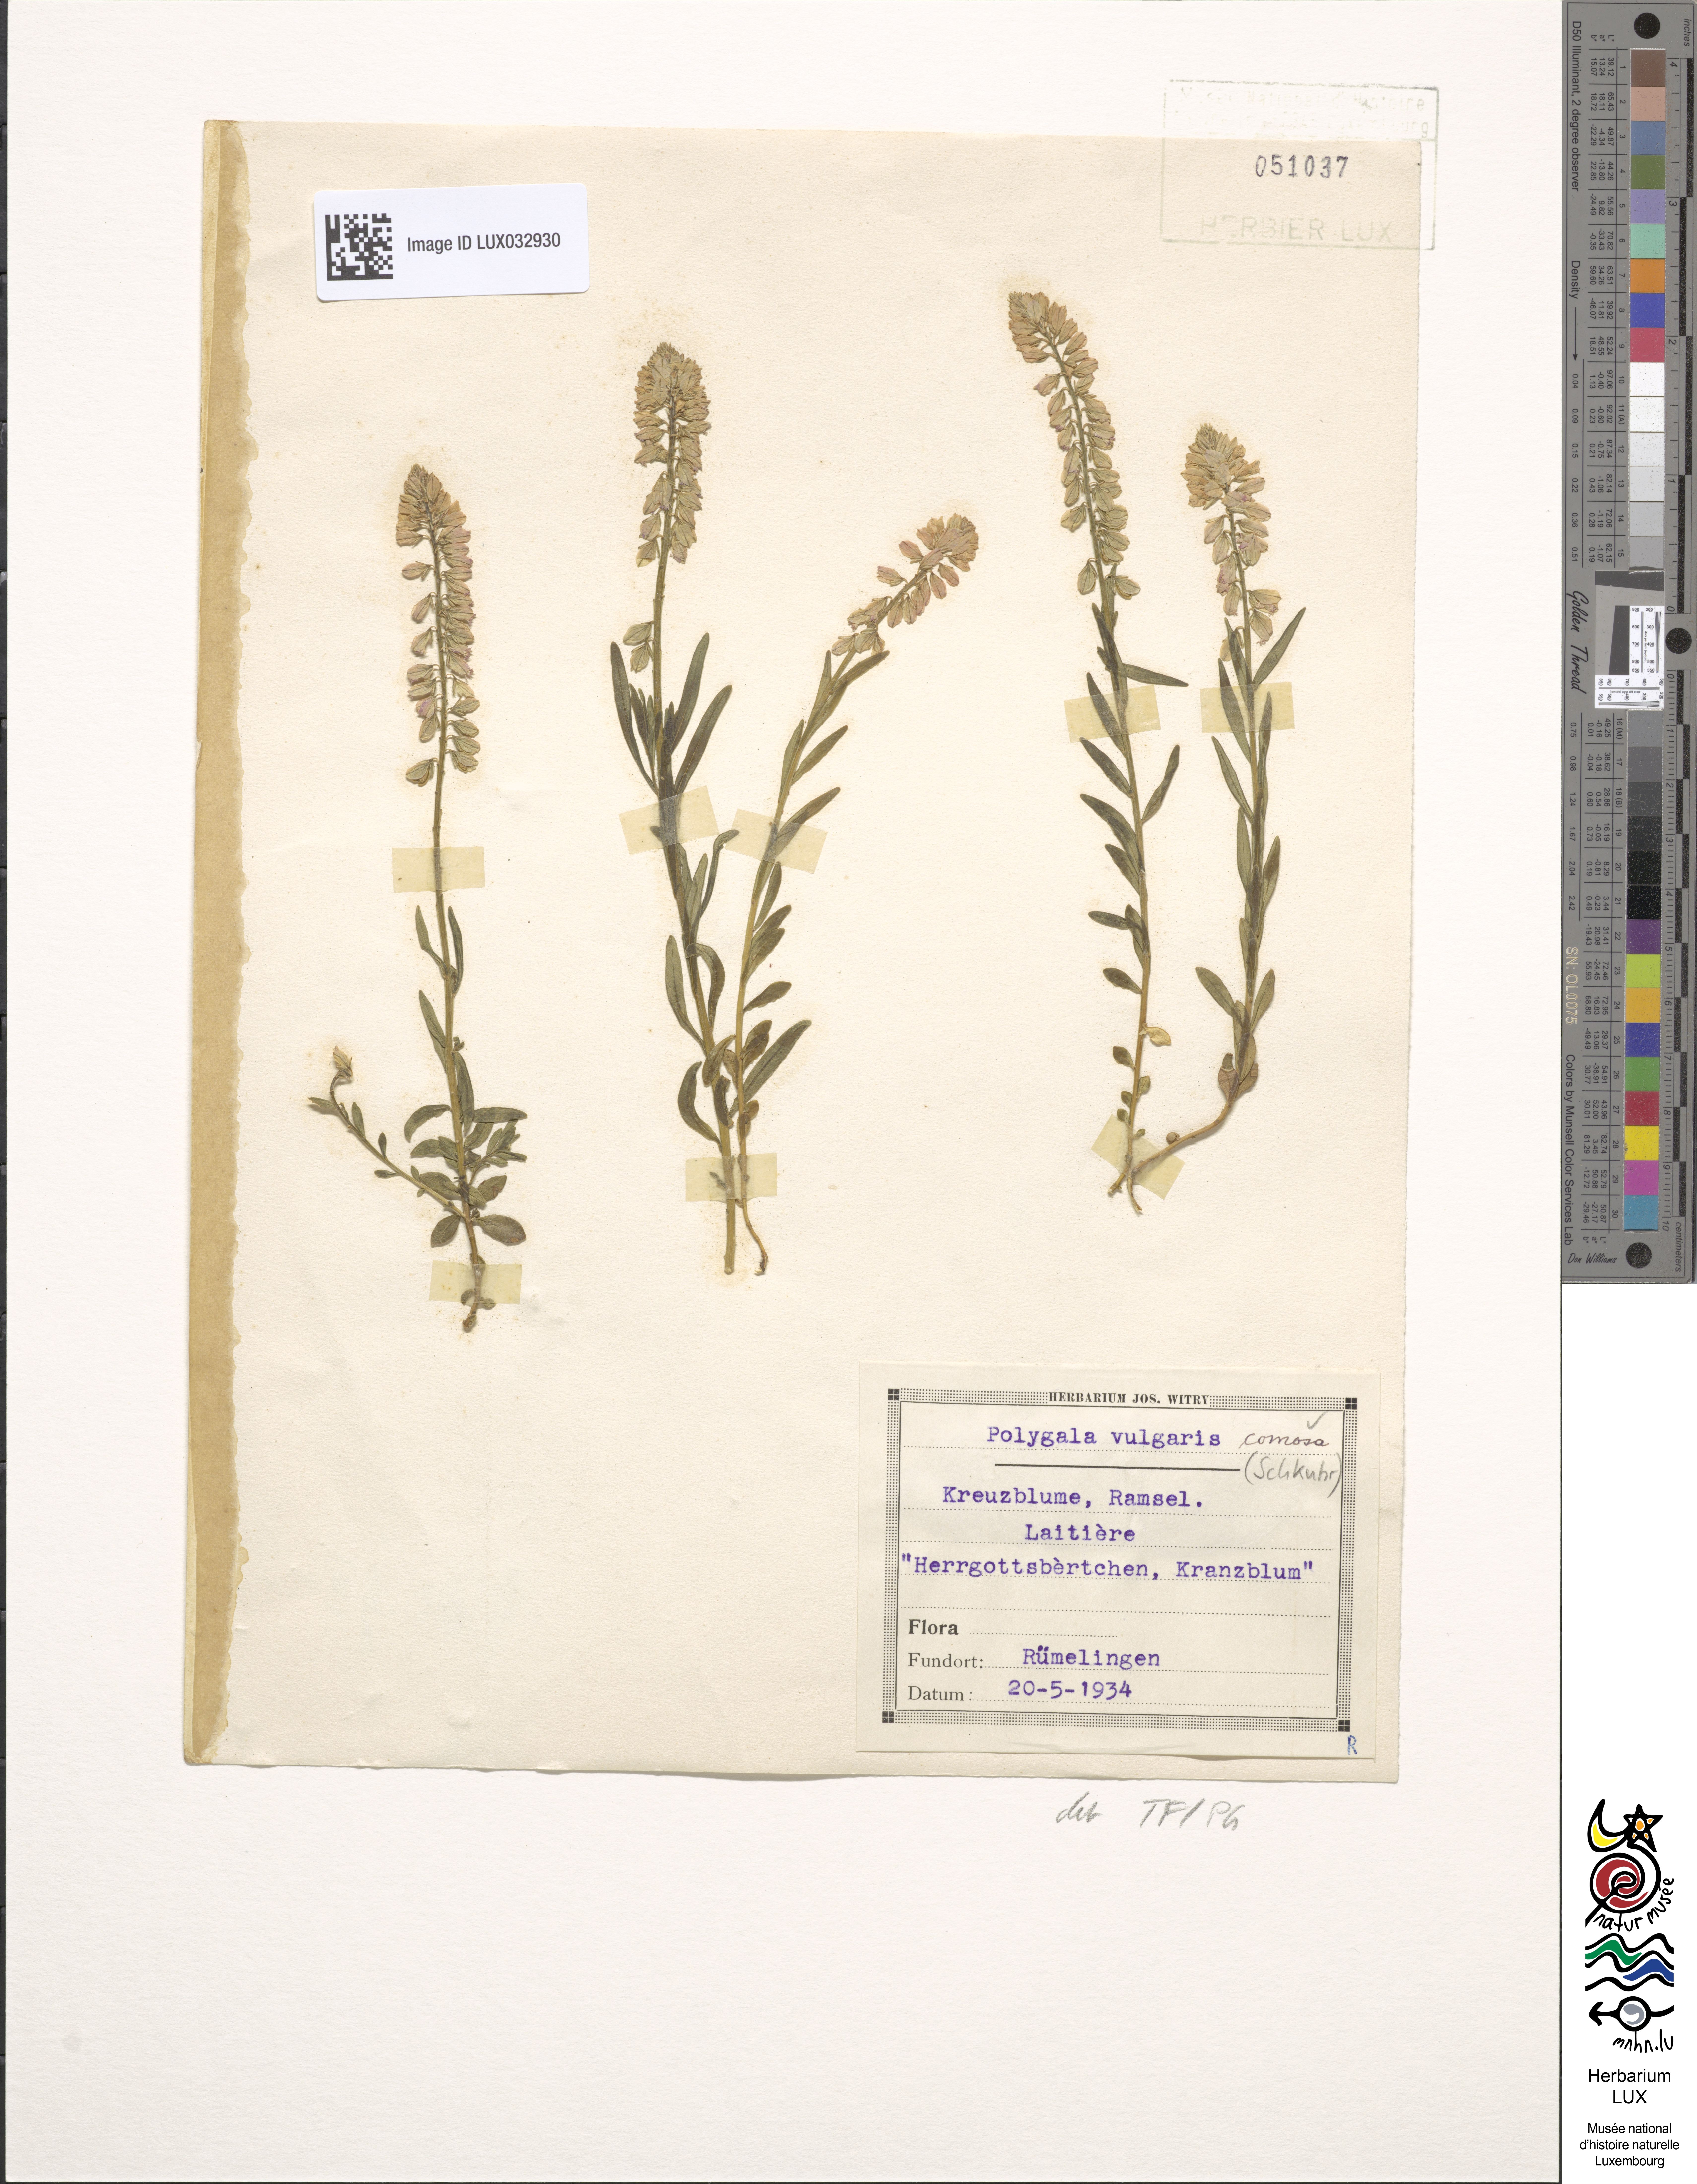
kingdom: Plantae
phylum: Tracheophyta
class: Magnoliopsida
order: Fabales
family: Polygalaceae
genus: Polygala
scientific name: Polygala comosa
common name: Tufted milkwort
